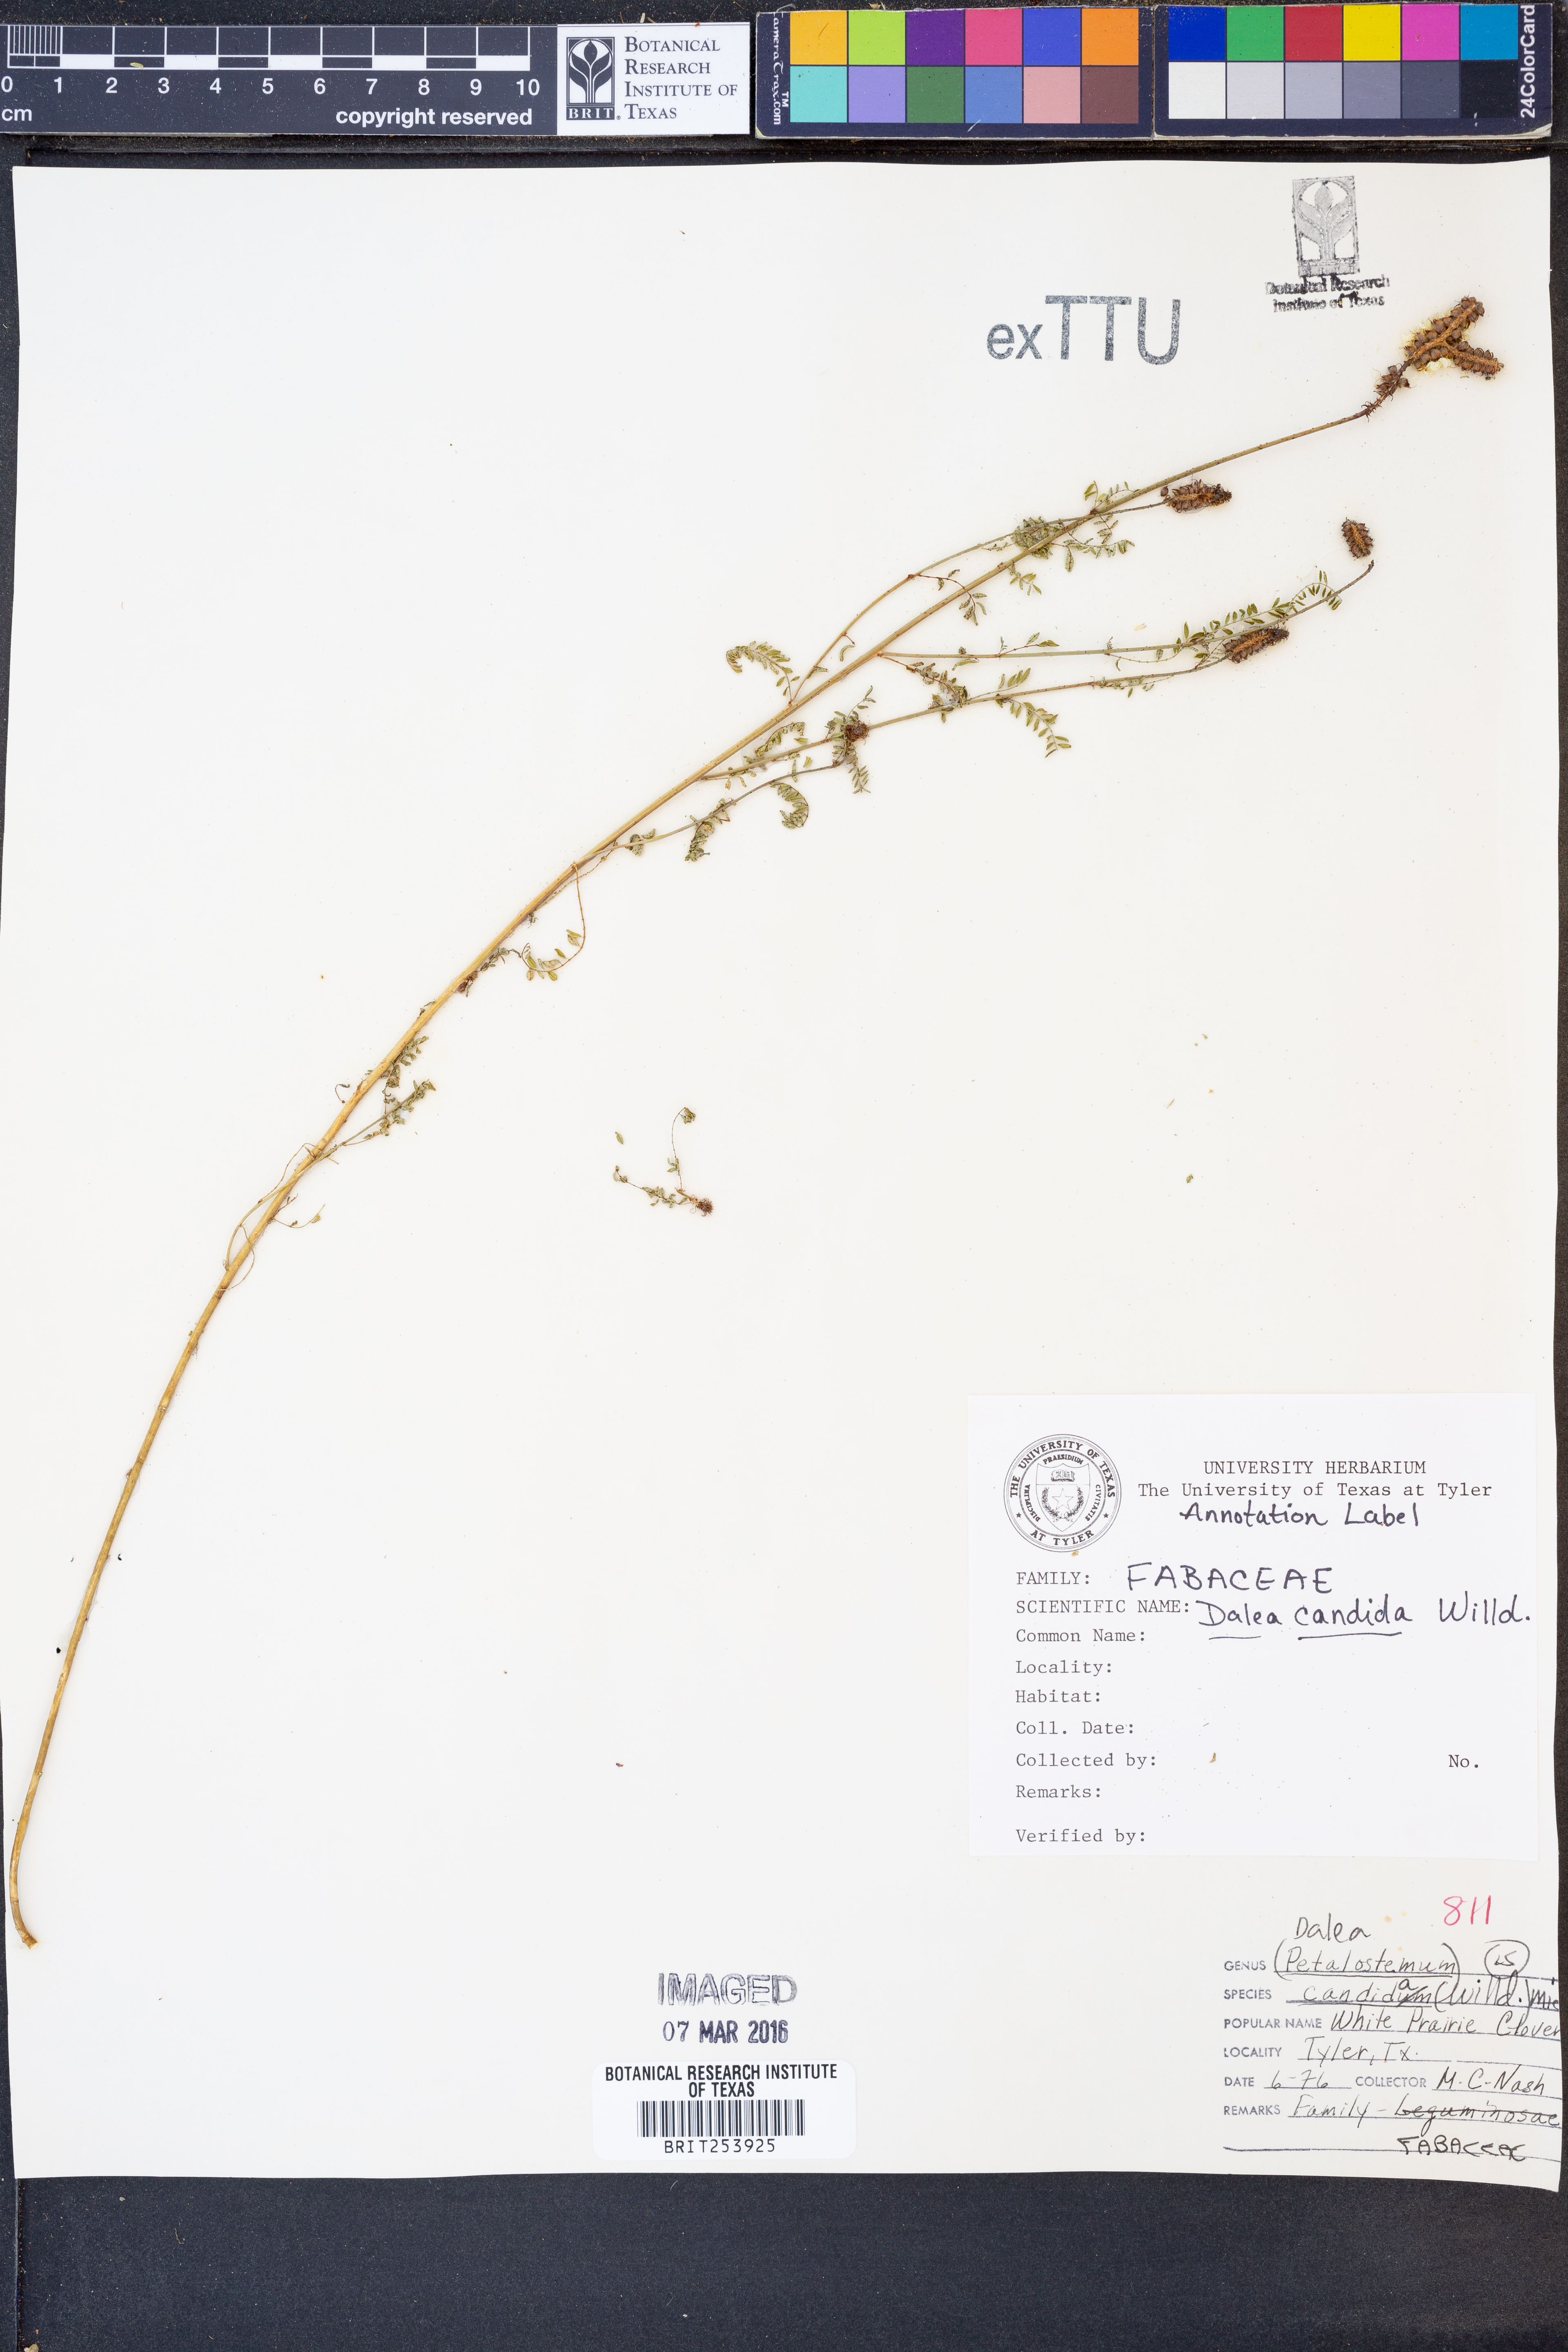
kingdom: Plantae
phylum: Tracheophyta
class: Magnoliopsida
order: Fabales
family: Fabaceae
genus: Dalea
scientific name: Dalea candida
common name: White prairie-clover
